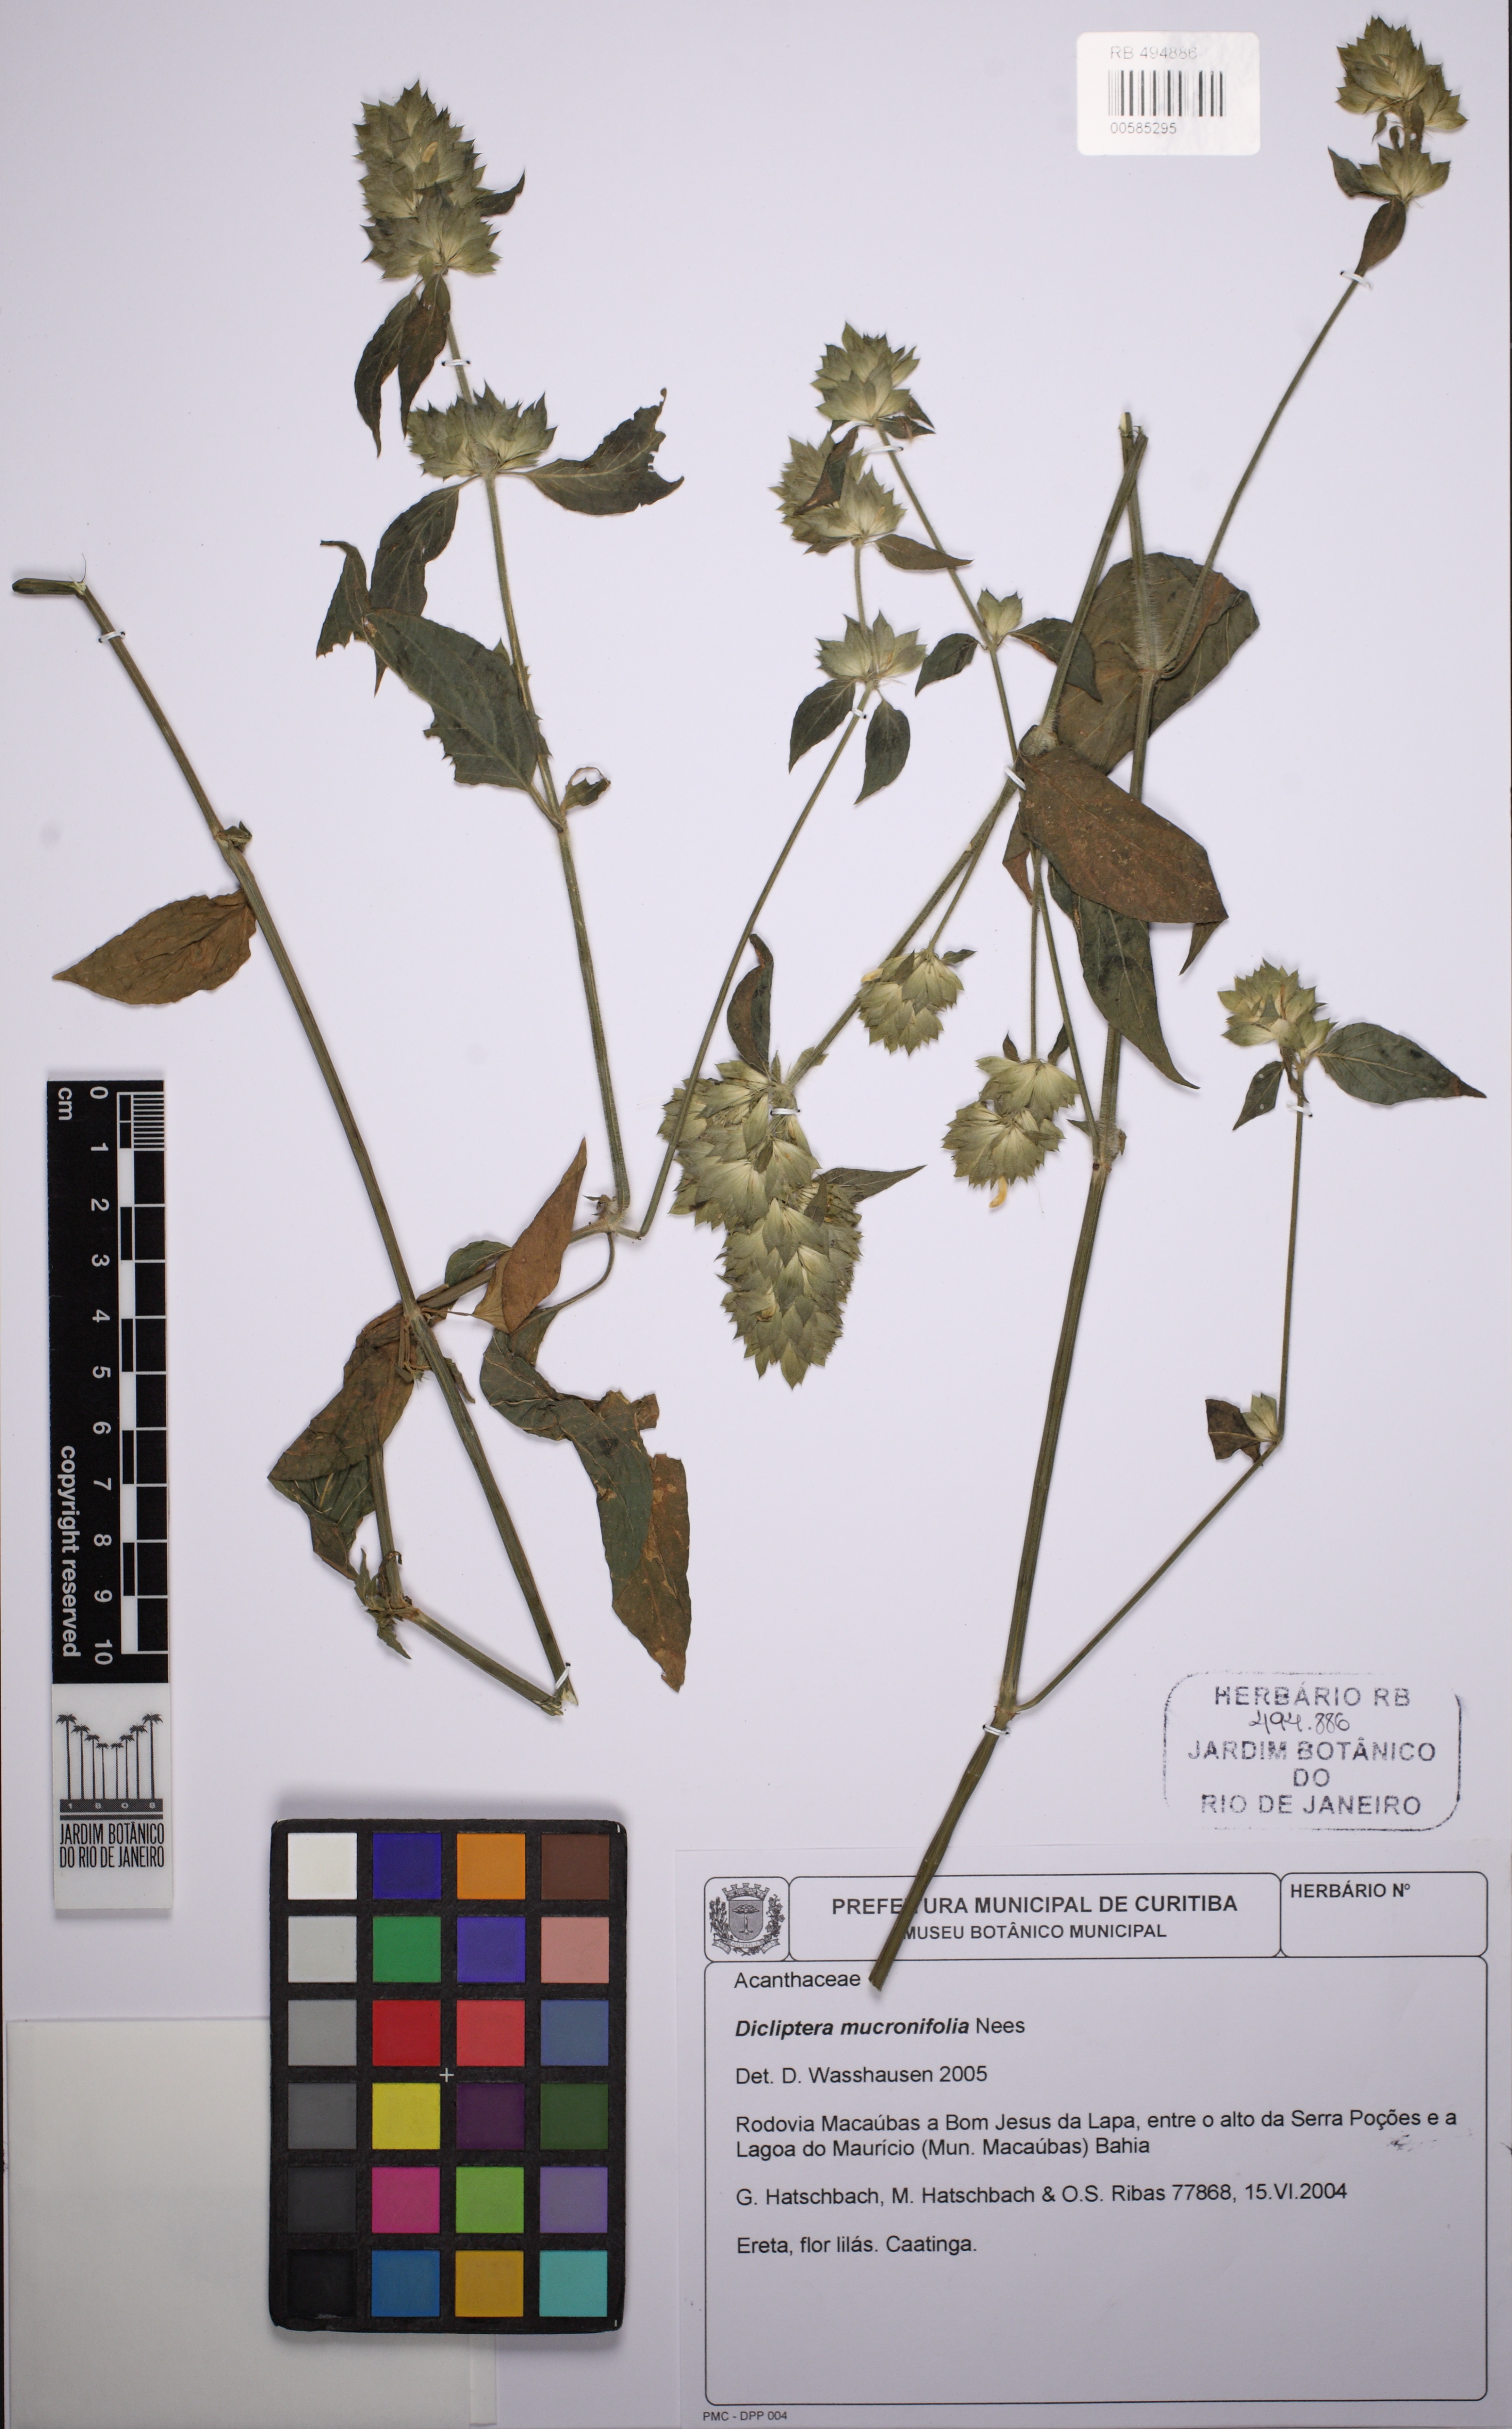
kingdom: Plantae
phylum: Tracheophyta
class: Magnoliopsida
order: Lamiales
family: Acanthaceae
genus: Dicliptera
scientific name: Dicliptera ciliaris
